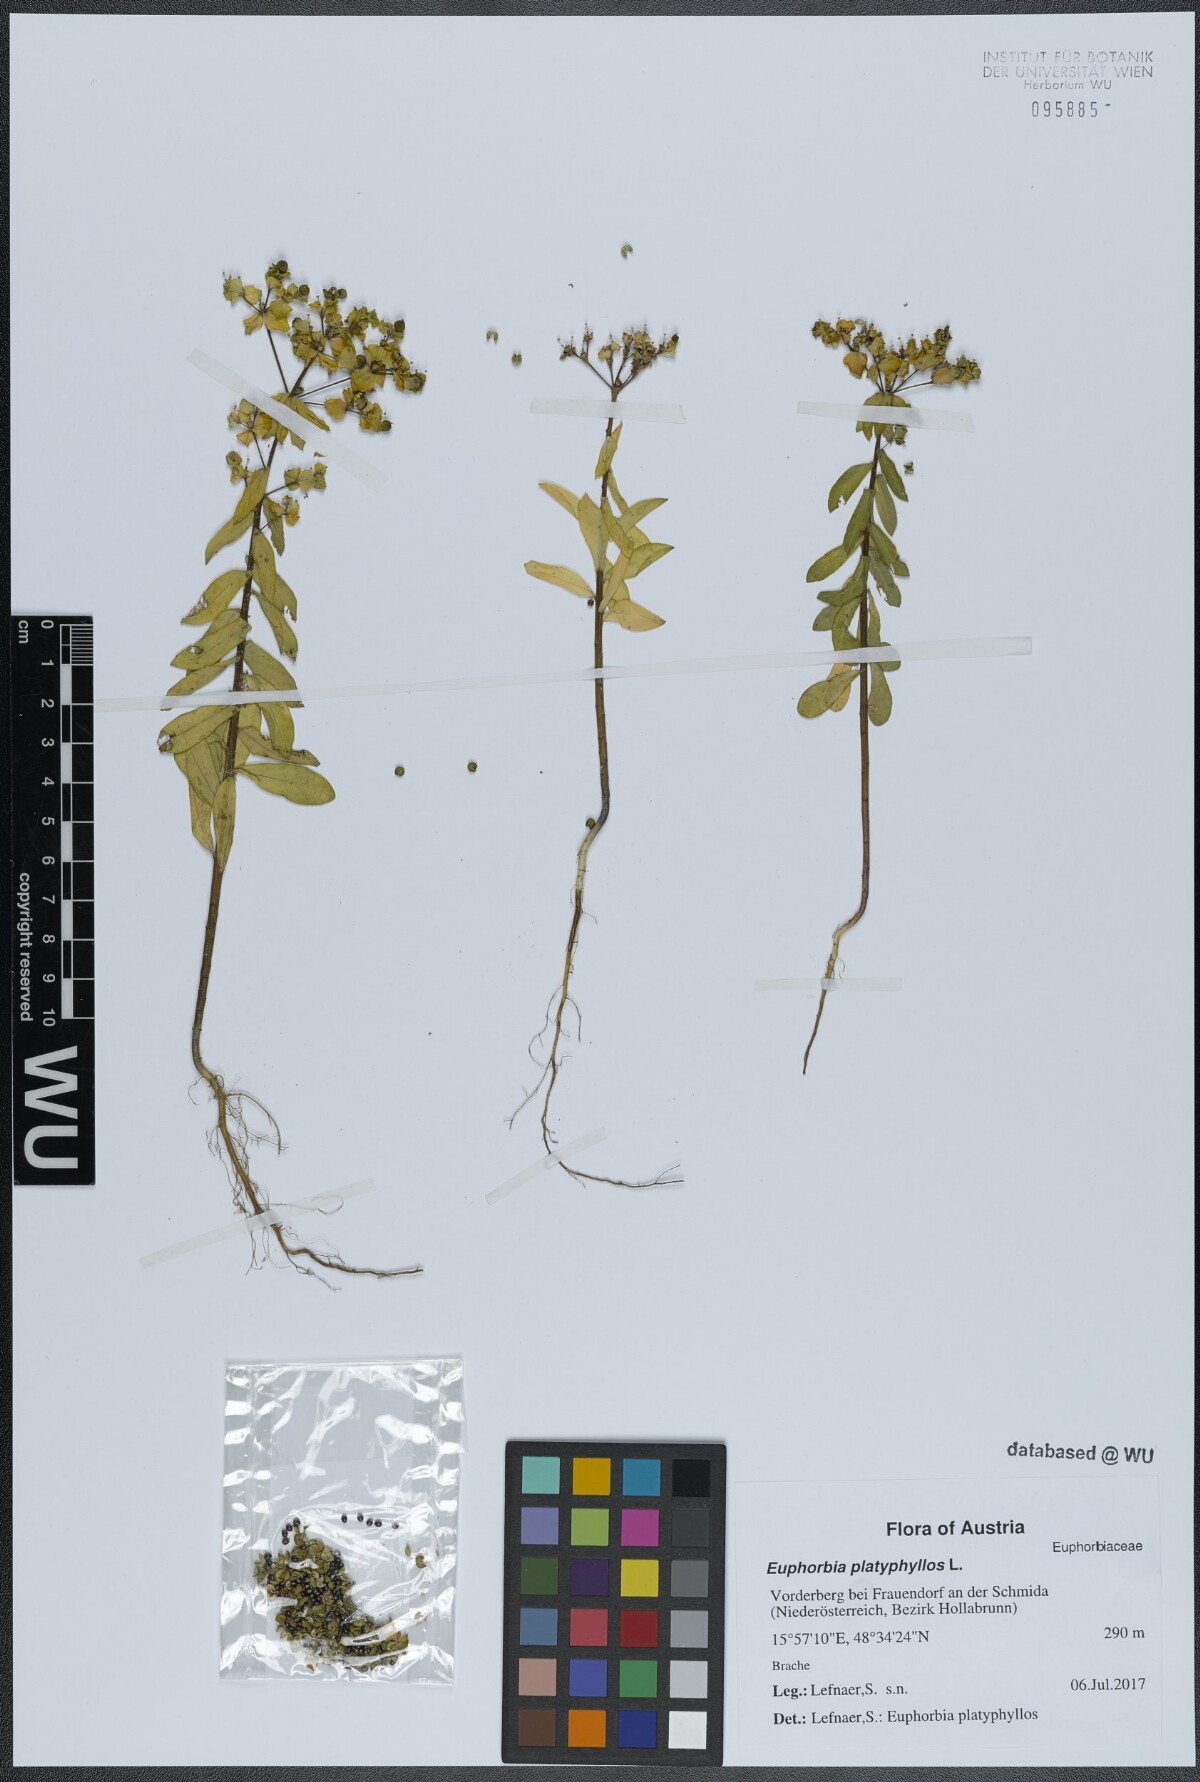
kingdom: Plantae
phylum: Tracheophyta
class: Magnoliopsida
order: Malpighiales
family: Euphorbiaceae
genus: Euphorbia
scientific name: Euphorbia platyphyllos
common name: Broad-leaved spurge
